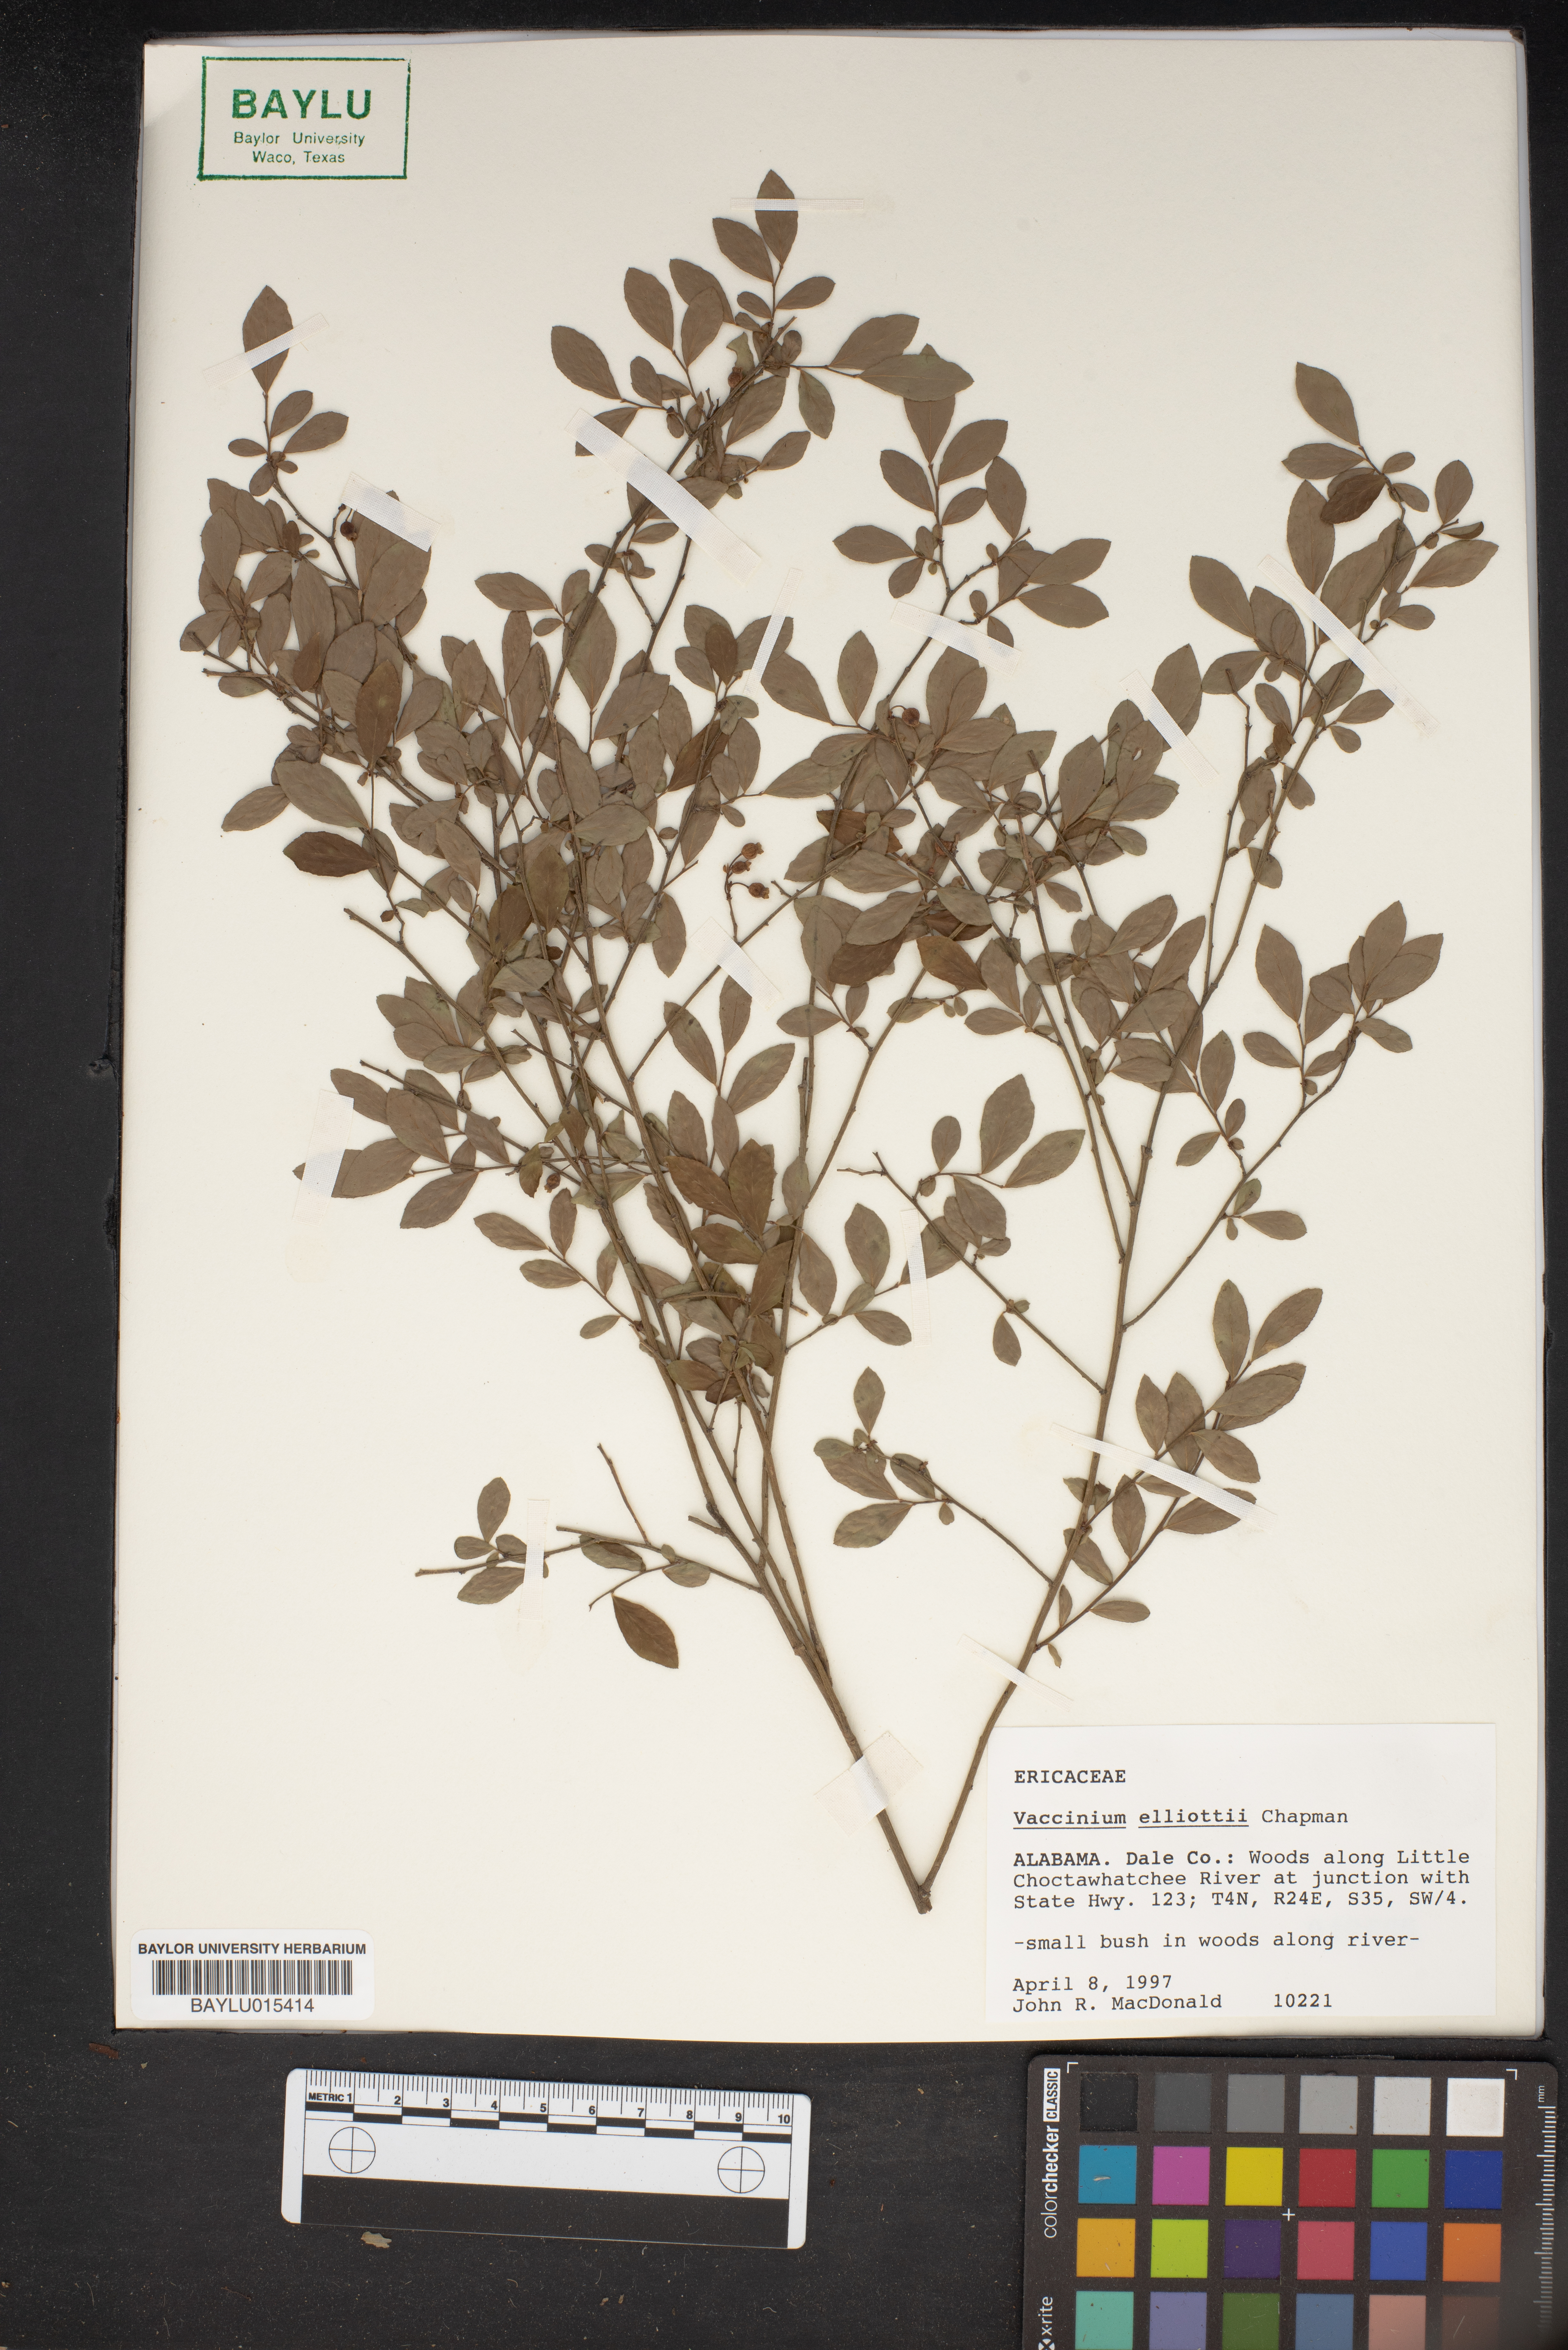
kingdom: Plantae
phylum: Tracheophyta
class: Magnoliopsida
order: Ericales
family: Ericaceae
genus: Vaccinium
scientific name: Vaccinium corymbosum
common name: Blueberry
